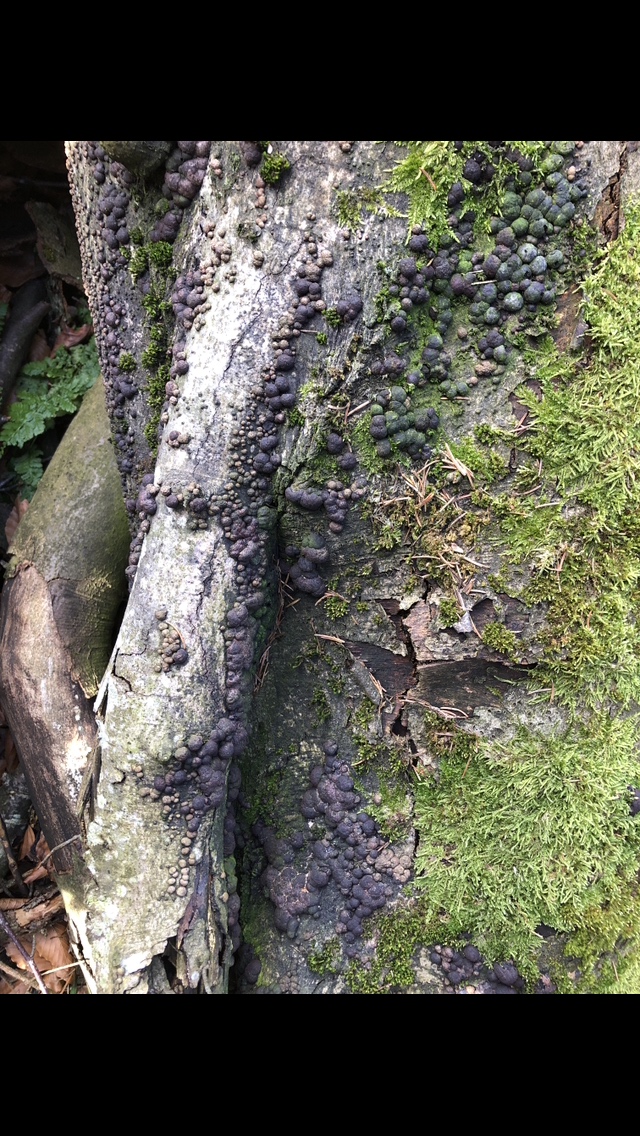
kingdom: Fungi
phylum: Ascomycota
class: Sordariomycetes
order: Xylariales
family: Hypoxylaceae
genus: Hypoxylon
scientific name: Hypoxylon fragiforme
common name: kuljordbær
